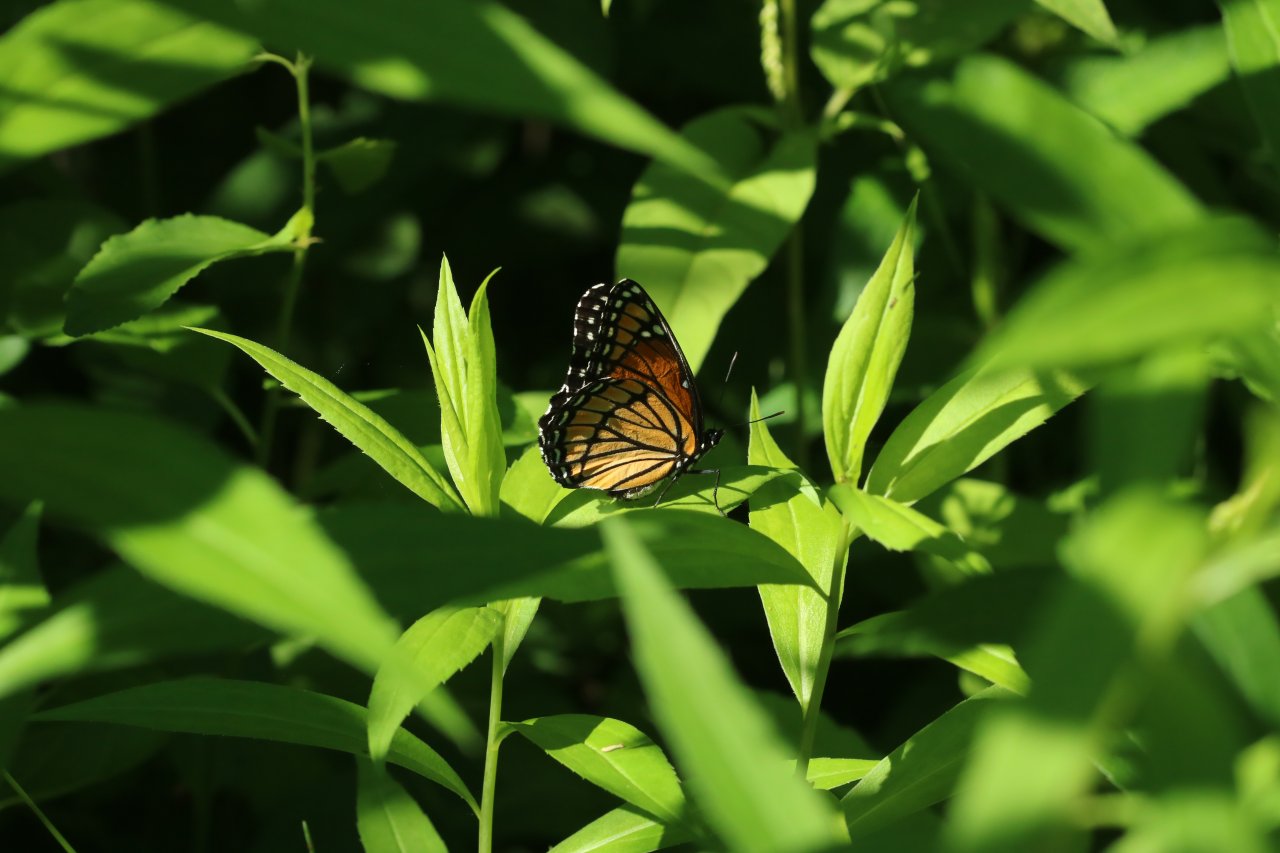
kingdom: Animalia
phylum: Arthropoda
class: Insecta
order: Lepidoptera
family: Nymphalidae
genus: Limenitis
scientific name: Limenitis archippus
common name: Viceroy
